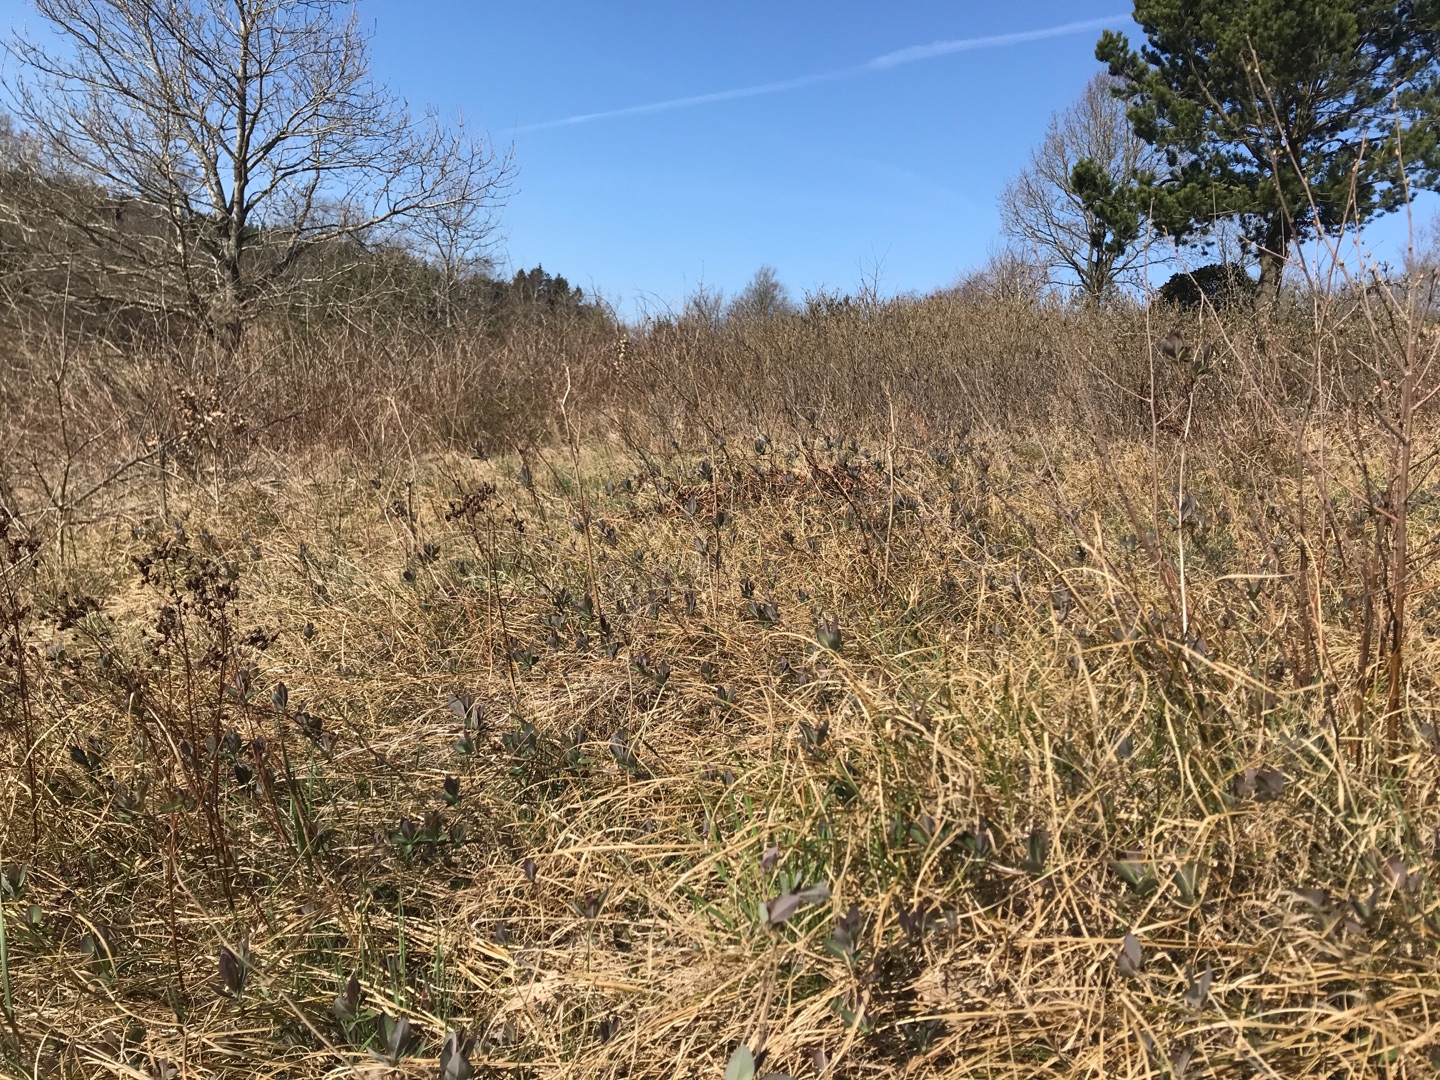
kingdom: Plantae
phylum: Tracheophyta
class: Magnoliopsida
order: Dipsacales
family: Caprifoliaceae
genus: Lonicera
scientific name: Lonicera periclymenum
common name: Almindelig gedeblad
